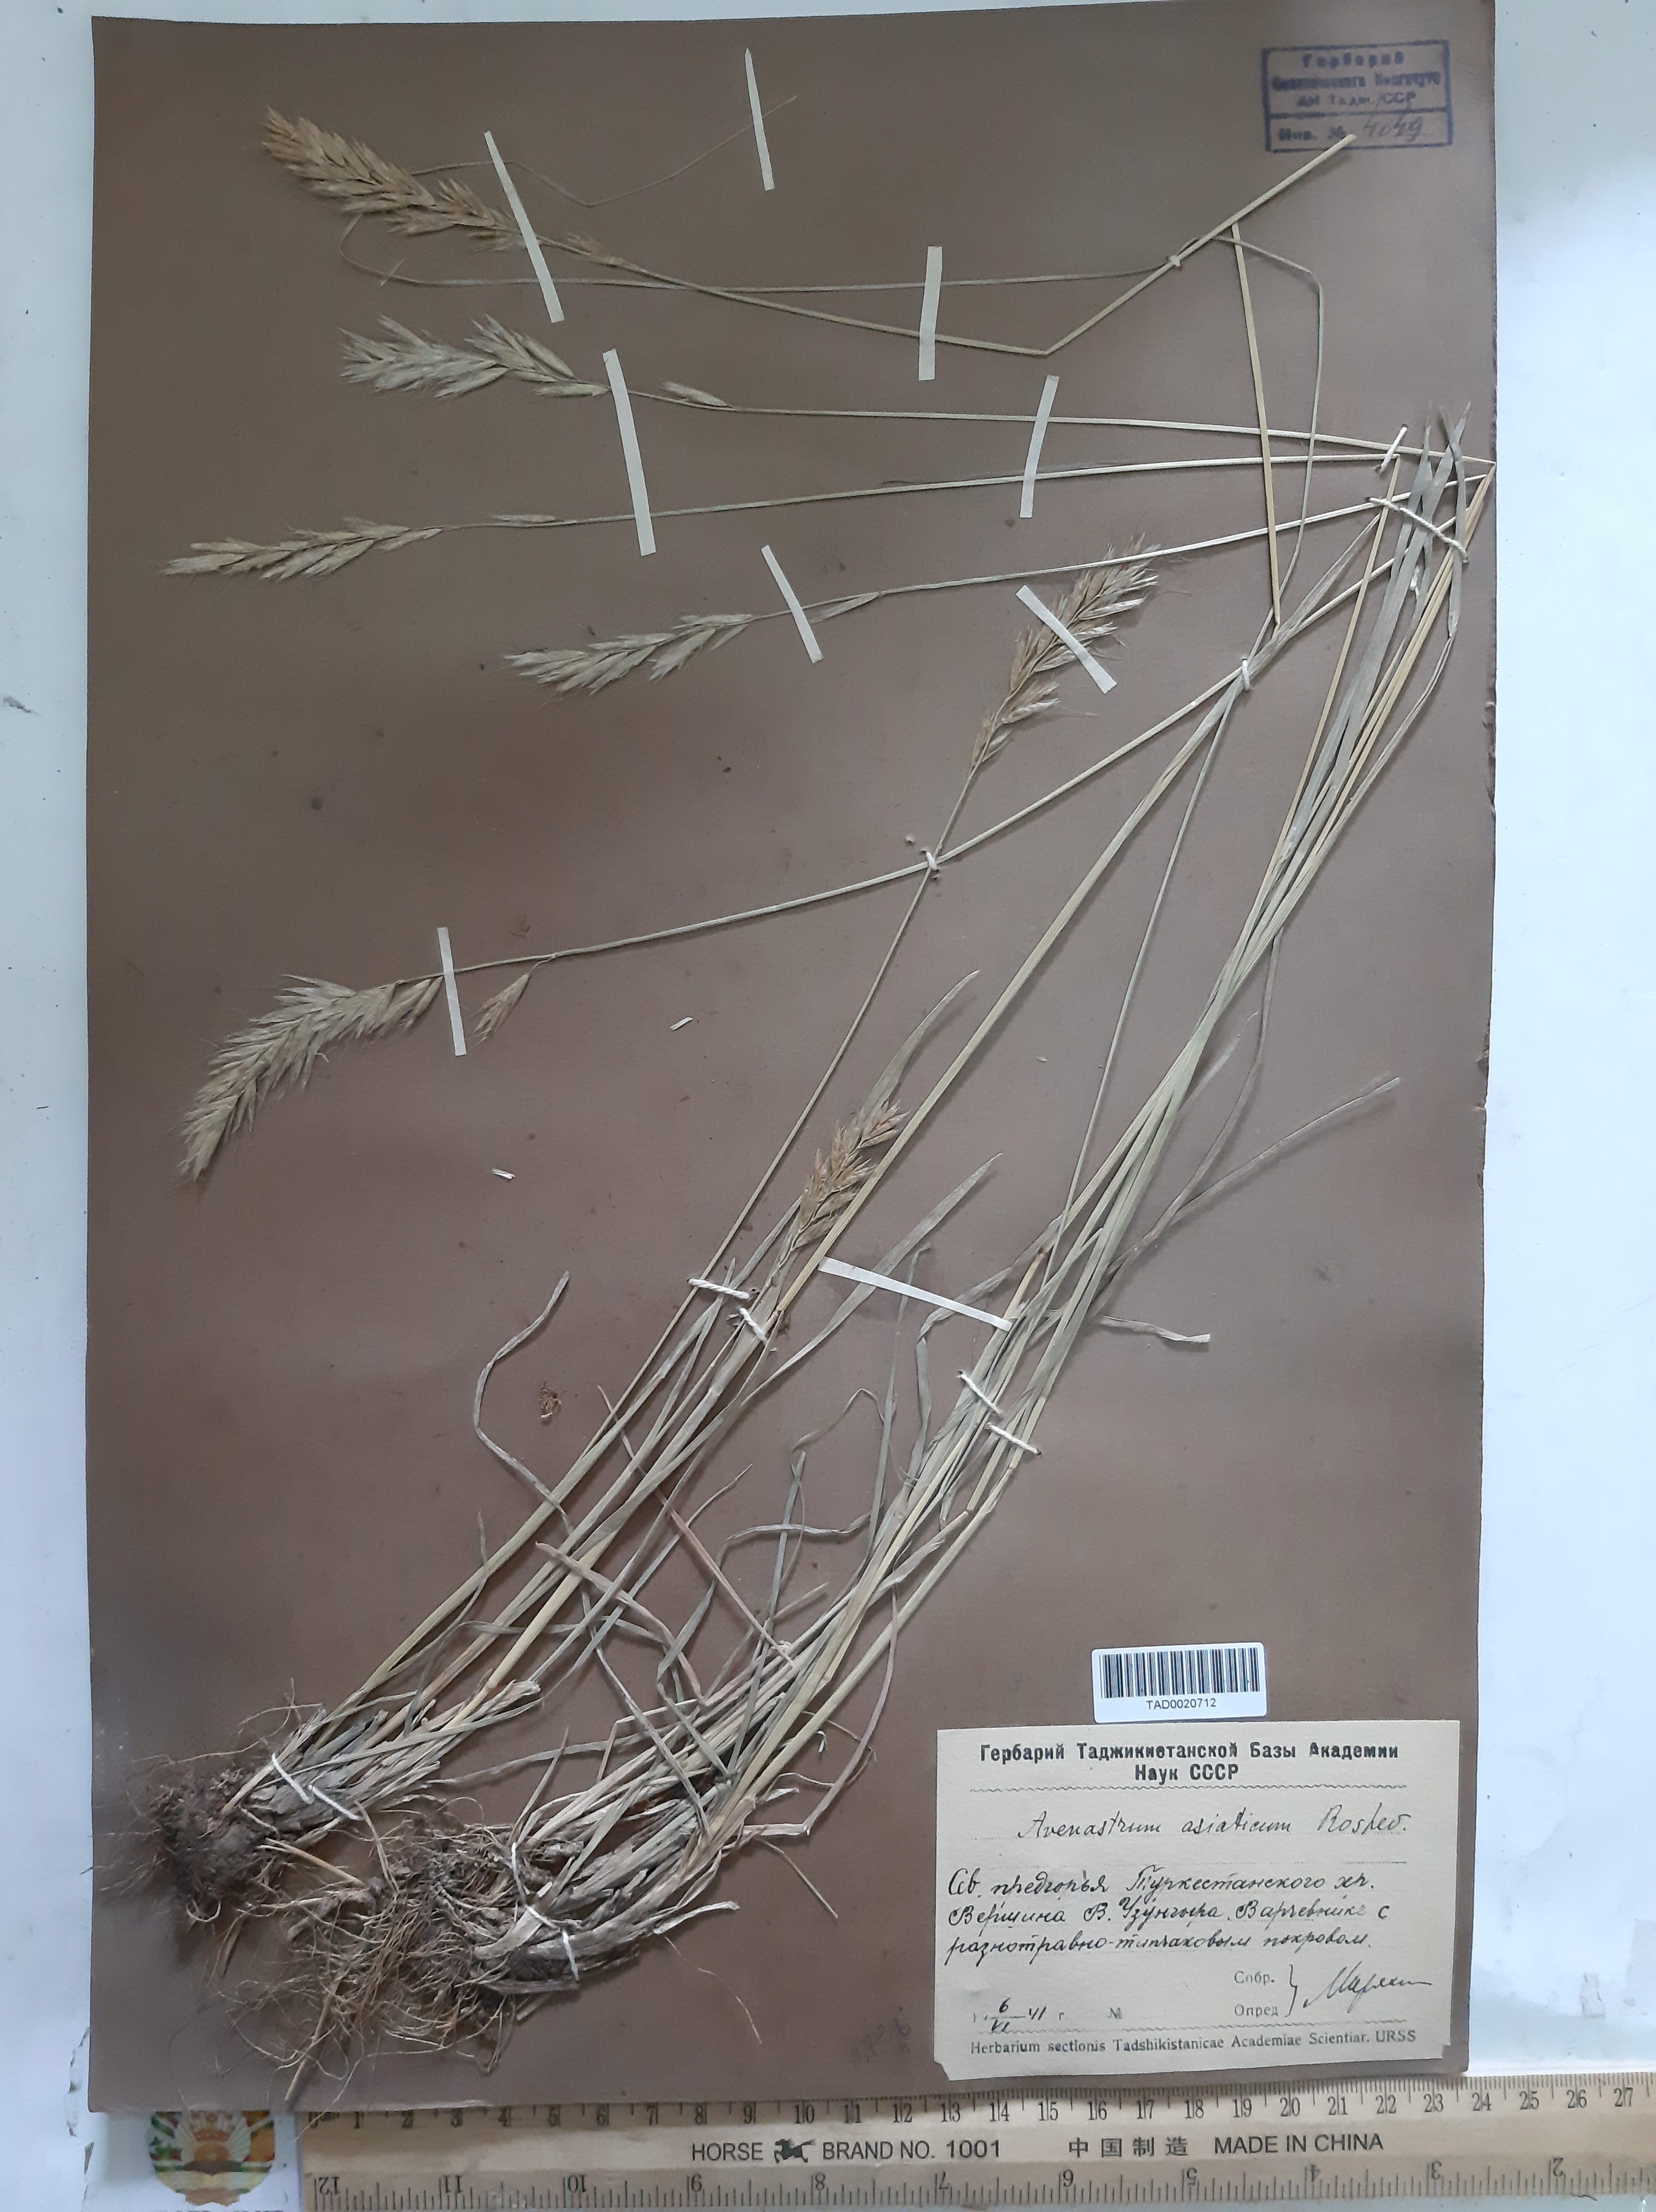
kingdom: Plantae
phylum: Tracheophyta
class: Liliopsida
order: Poales
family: Poaceae
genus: Helictochloa
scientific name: Helictochloa hookeri
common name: Hooker's alpine oatgrass
